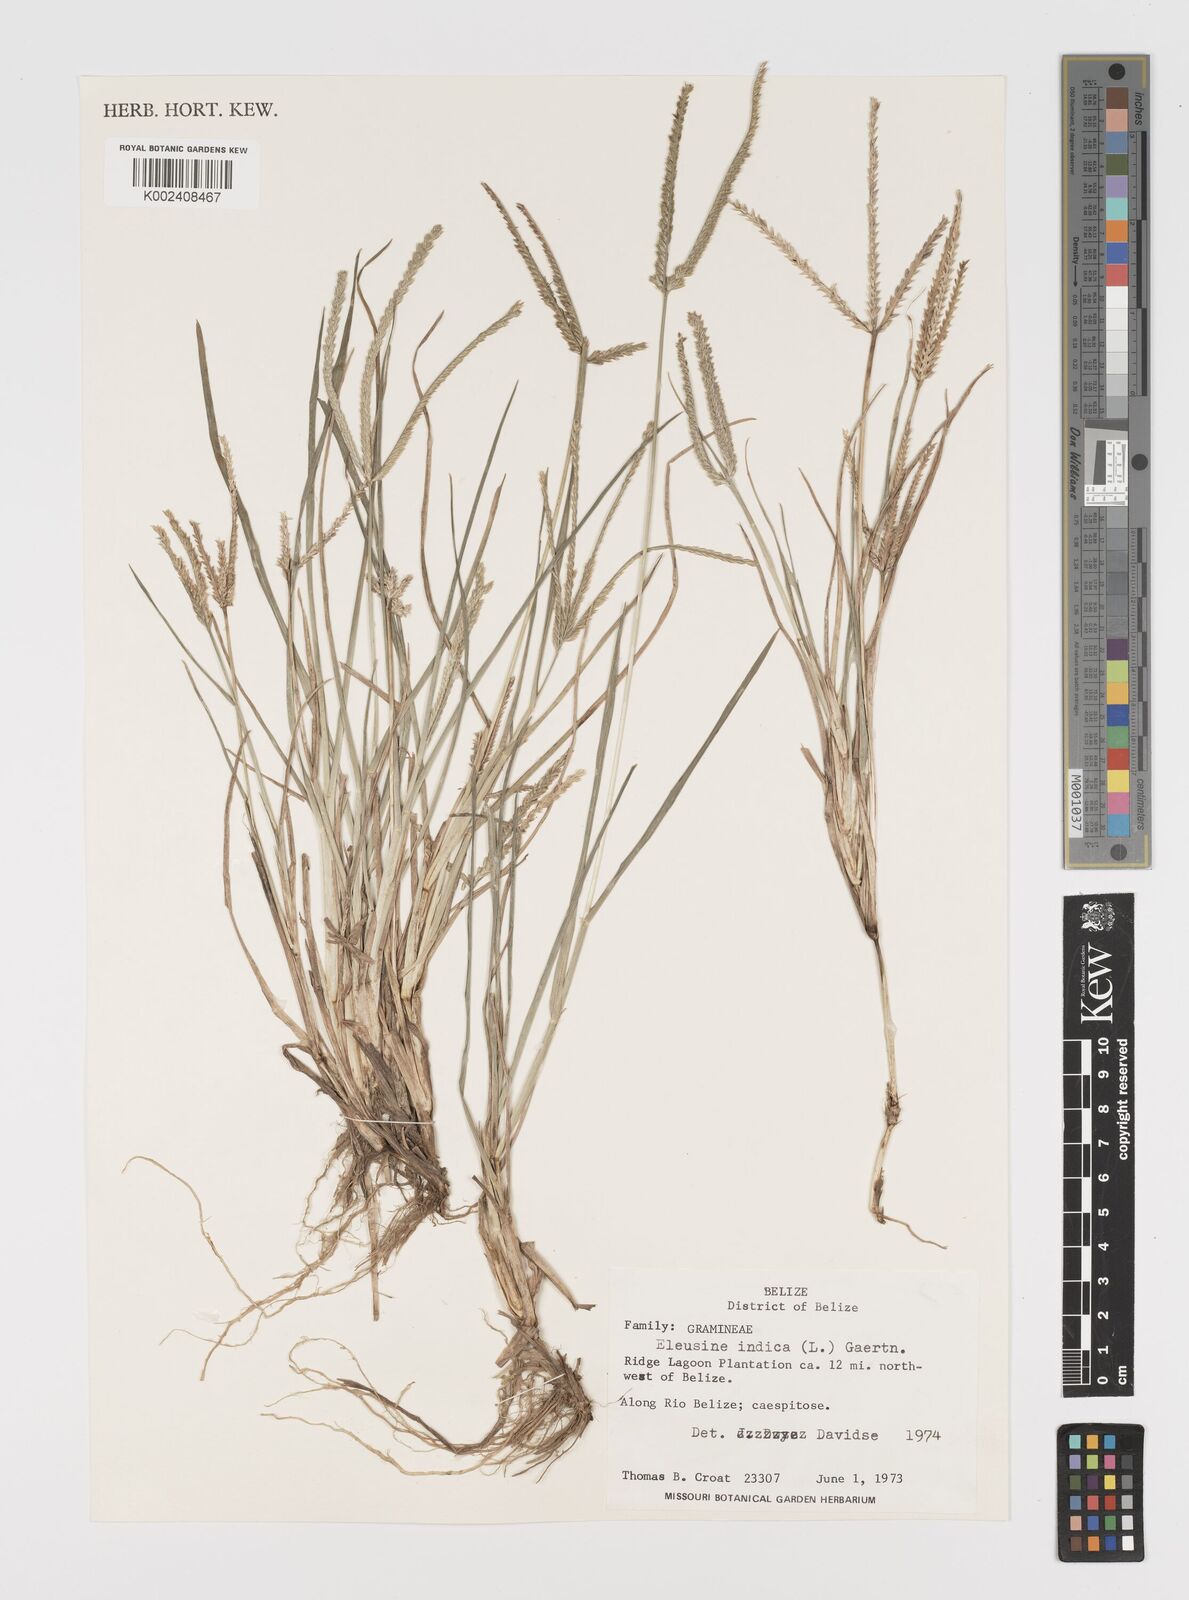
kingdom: Plantae
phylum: Tracheophyta
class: Liliopsida
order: Poales
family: Poaceae
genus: Eleusine
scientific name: Eleusine indica
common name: Yard-grass
